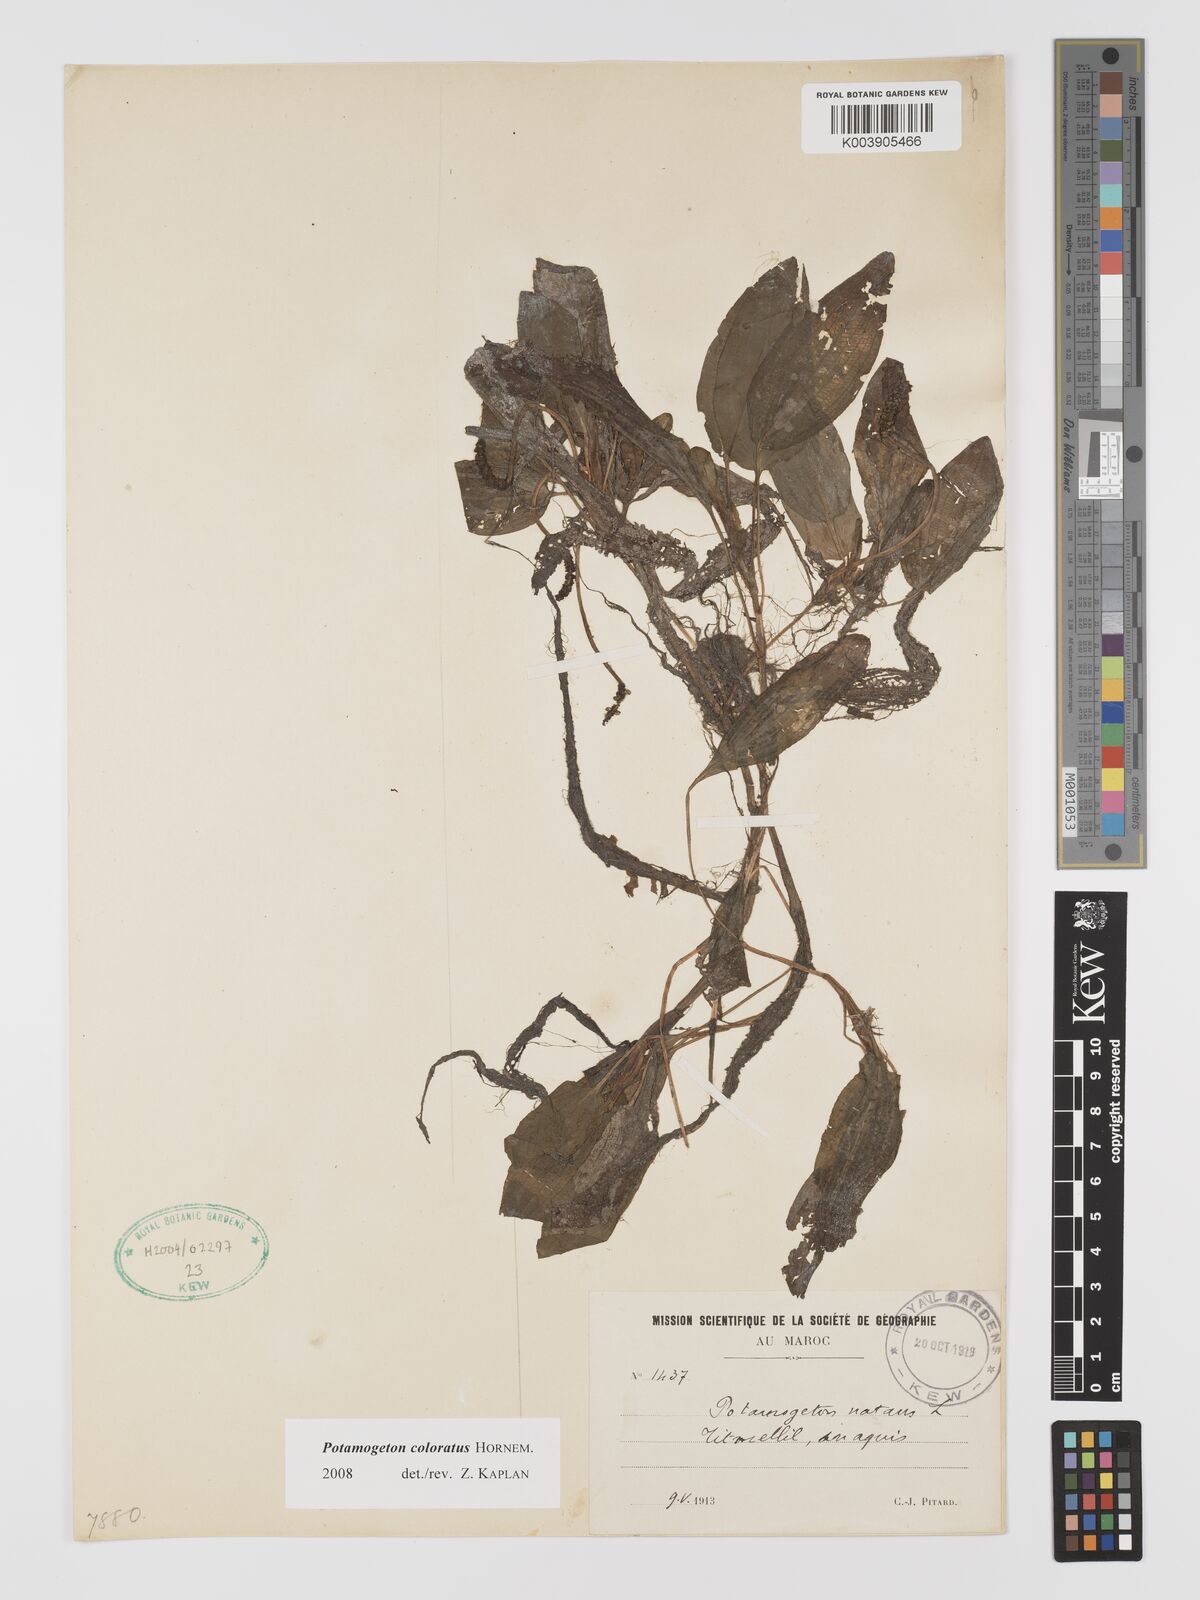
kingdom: Plantae
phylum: Tracheophyta
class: Liliopsida
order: Alismatales
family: Potamogetonaceae
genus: Potamogeton
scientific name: Potamogeton coloratus
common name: Fen pondweed
